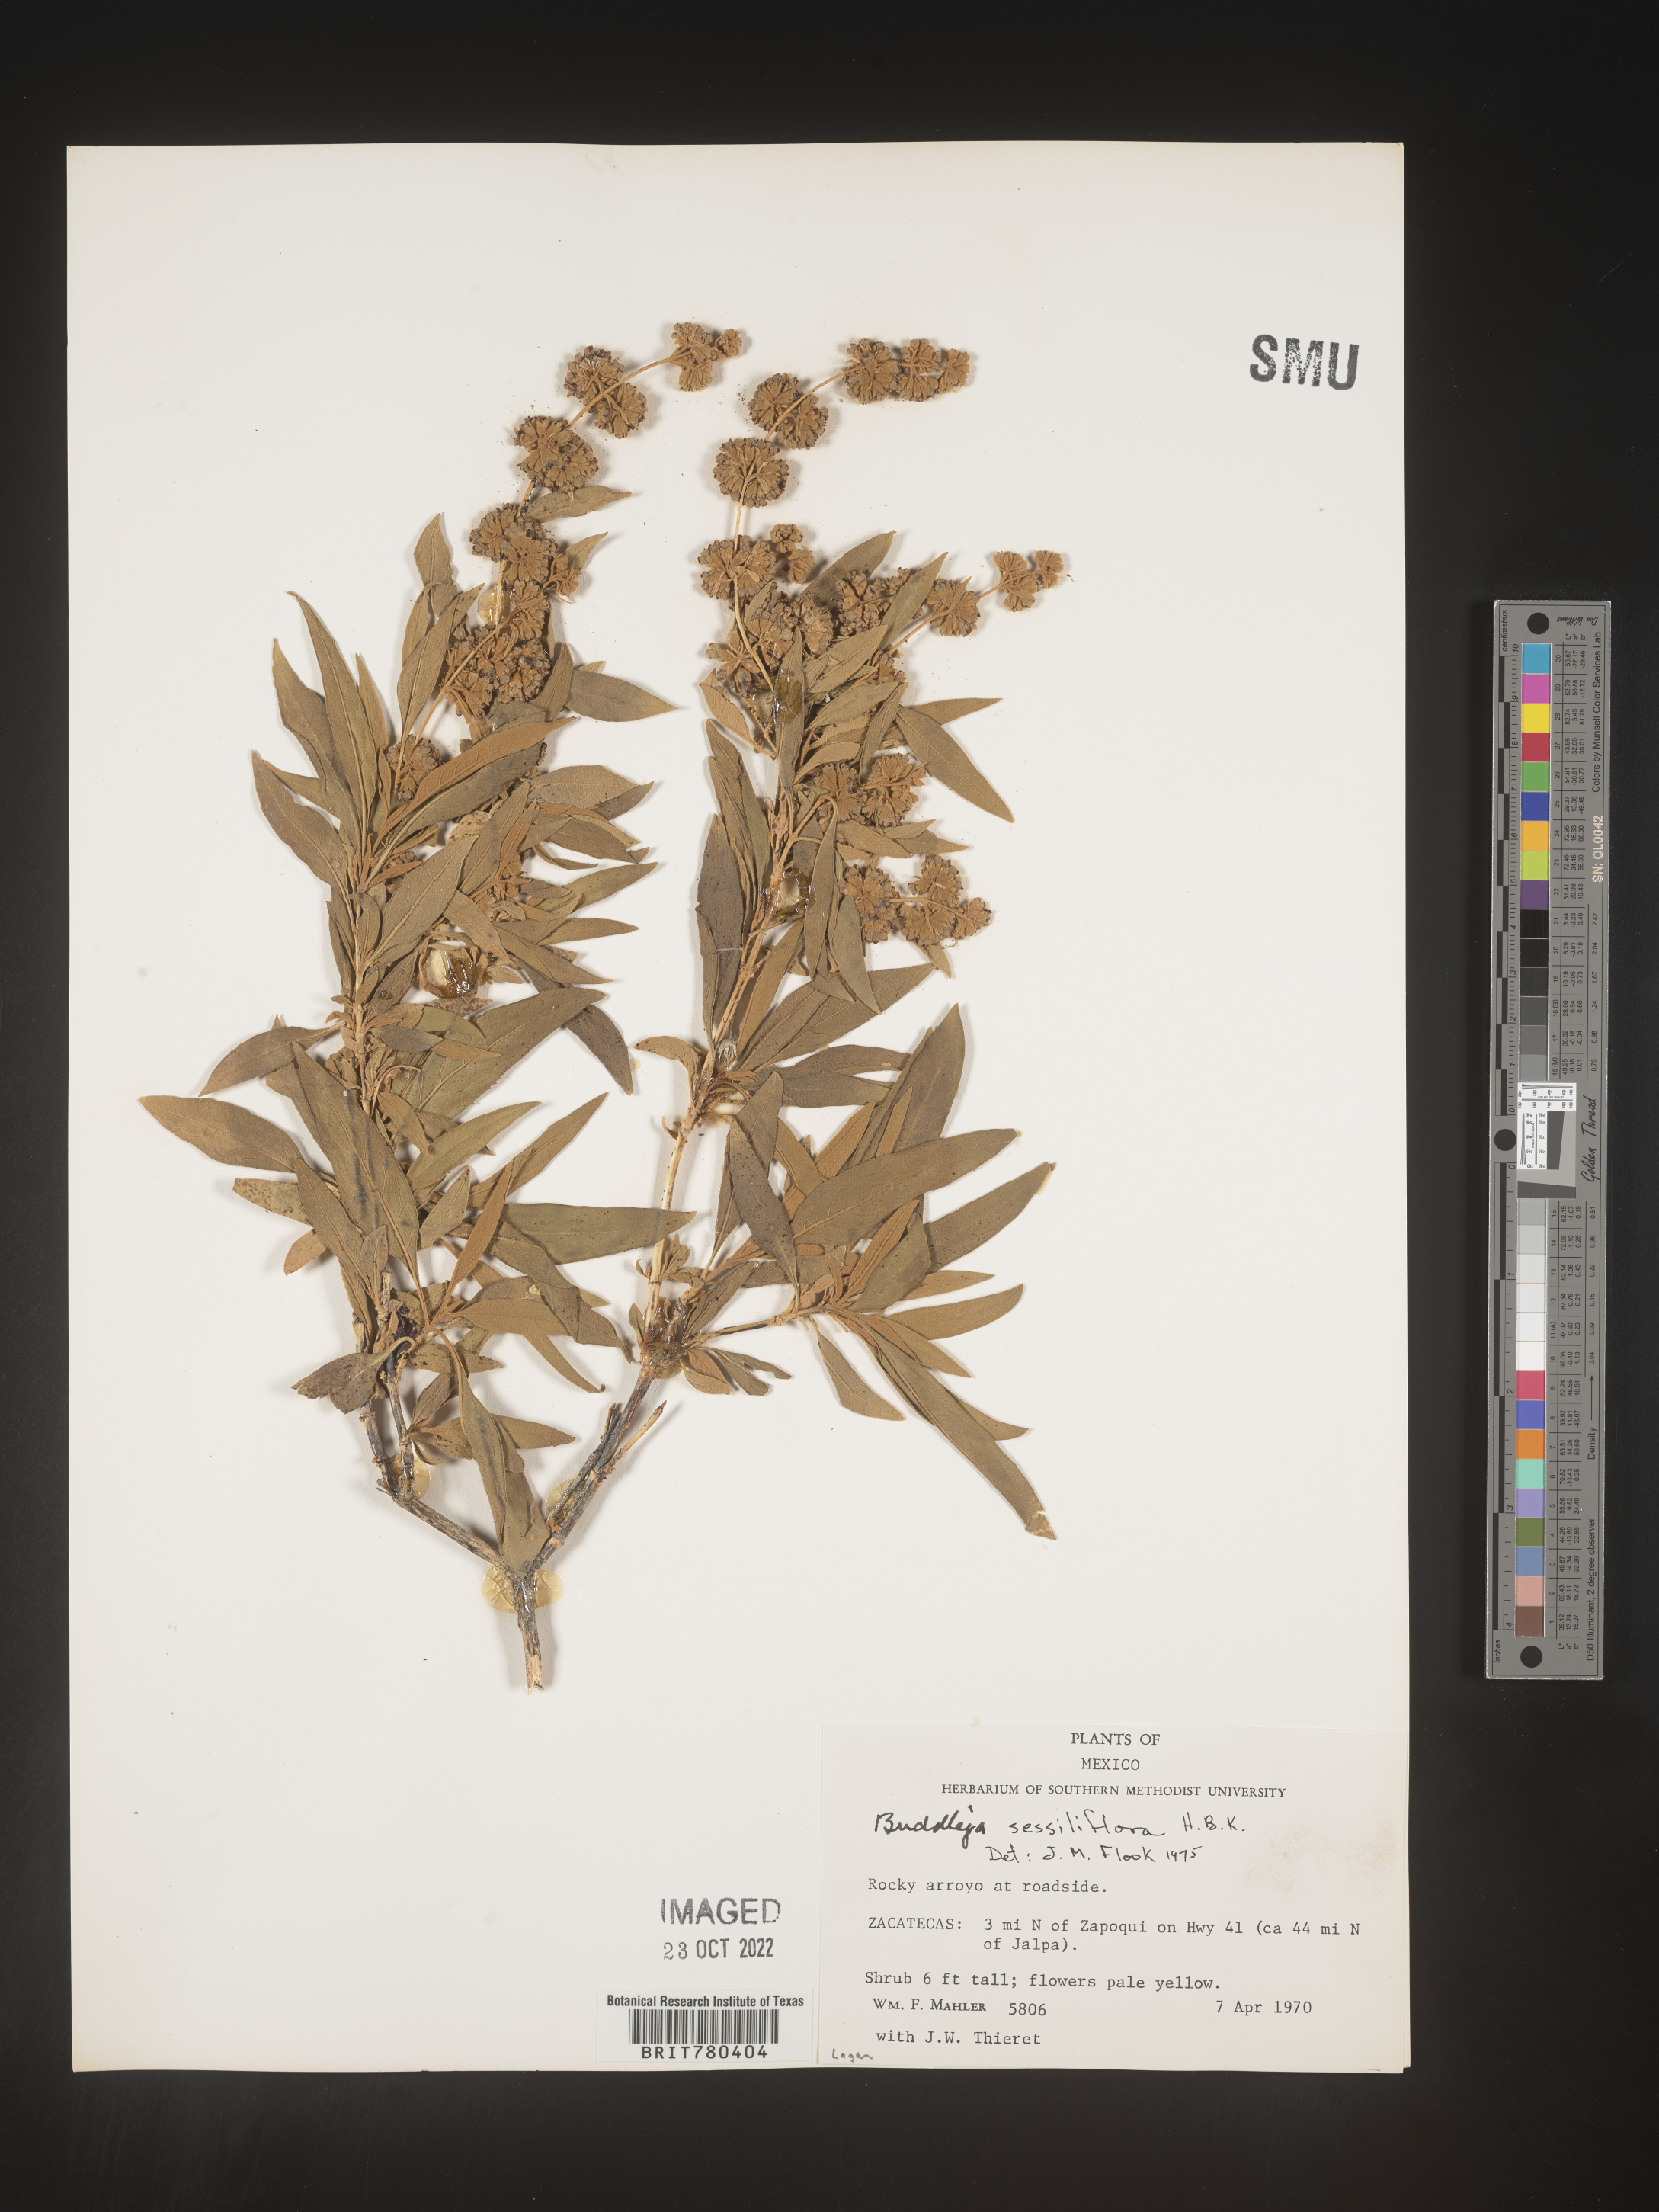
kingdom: Plantae
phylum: Tracheophyta
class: Magnoliopsida
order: Lamiales
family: Scrophulariaceae
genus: Buddleja
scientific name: Buddleja
